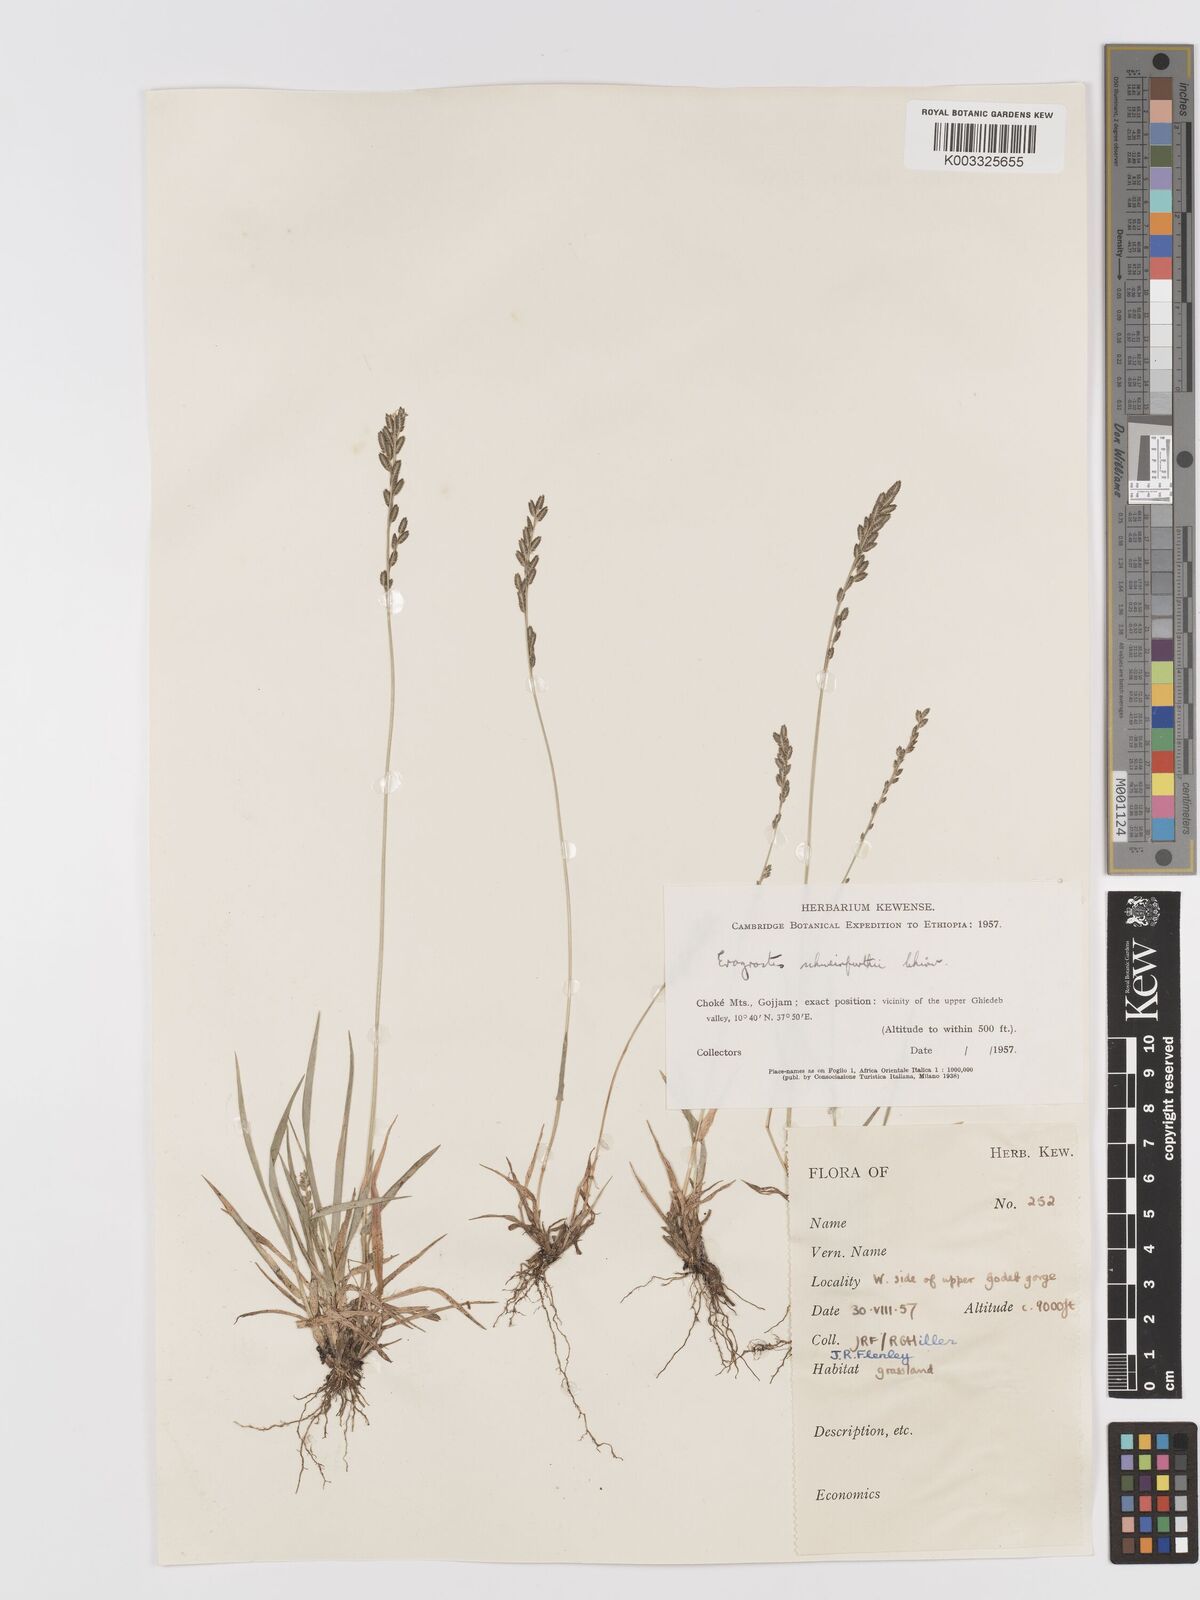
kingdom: Plantae
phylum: Tracheophyta
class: Liliopsida
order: Poales
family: Poaceae
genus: Eragrostis
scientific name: Eragrostis schweinfurthii
